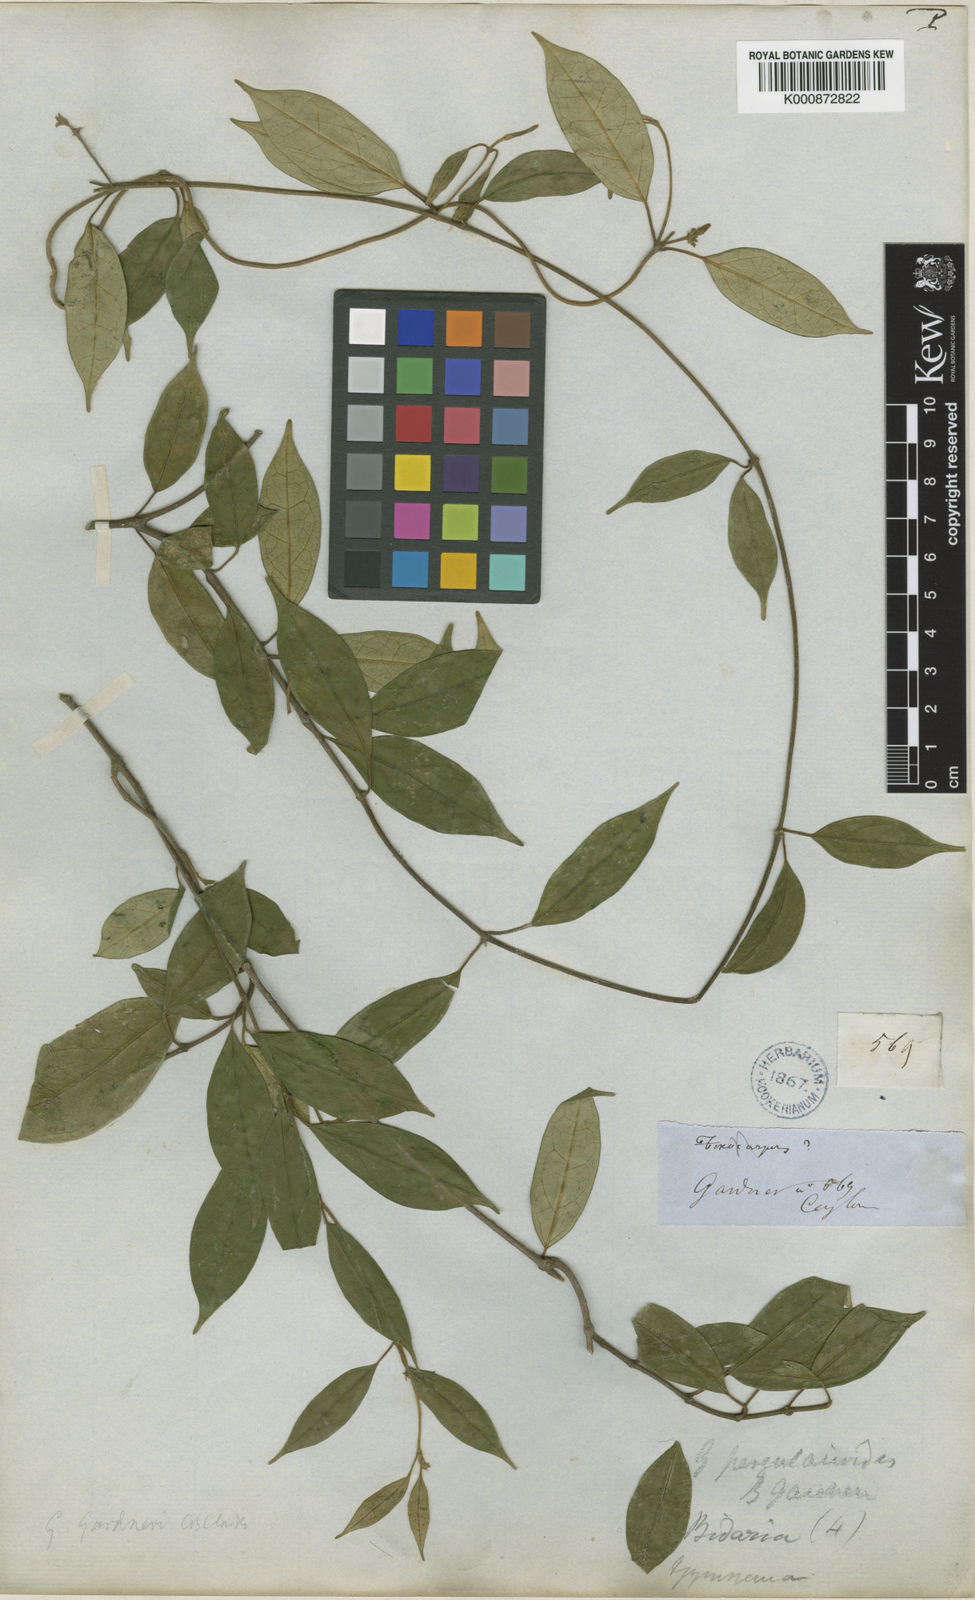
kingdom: Plantae
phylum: Tracheophyta
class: Magnoliopsida
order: Gentianales
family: Apocynaceae
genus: Gymnema
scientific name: Gymnema
